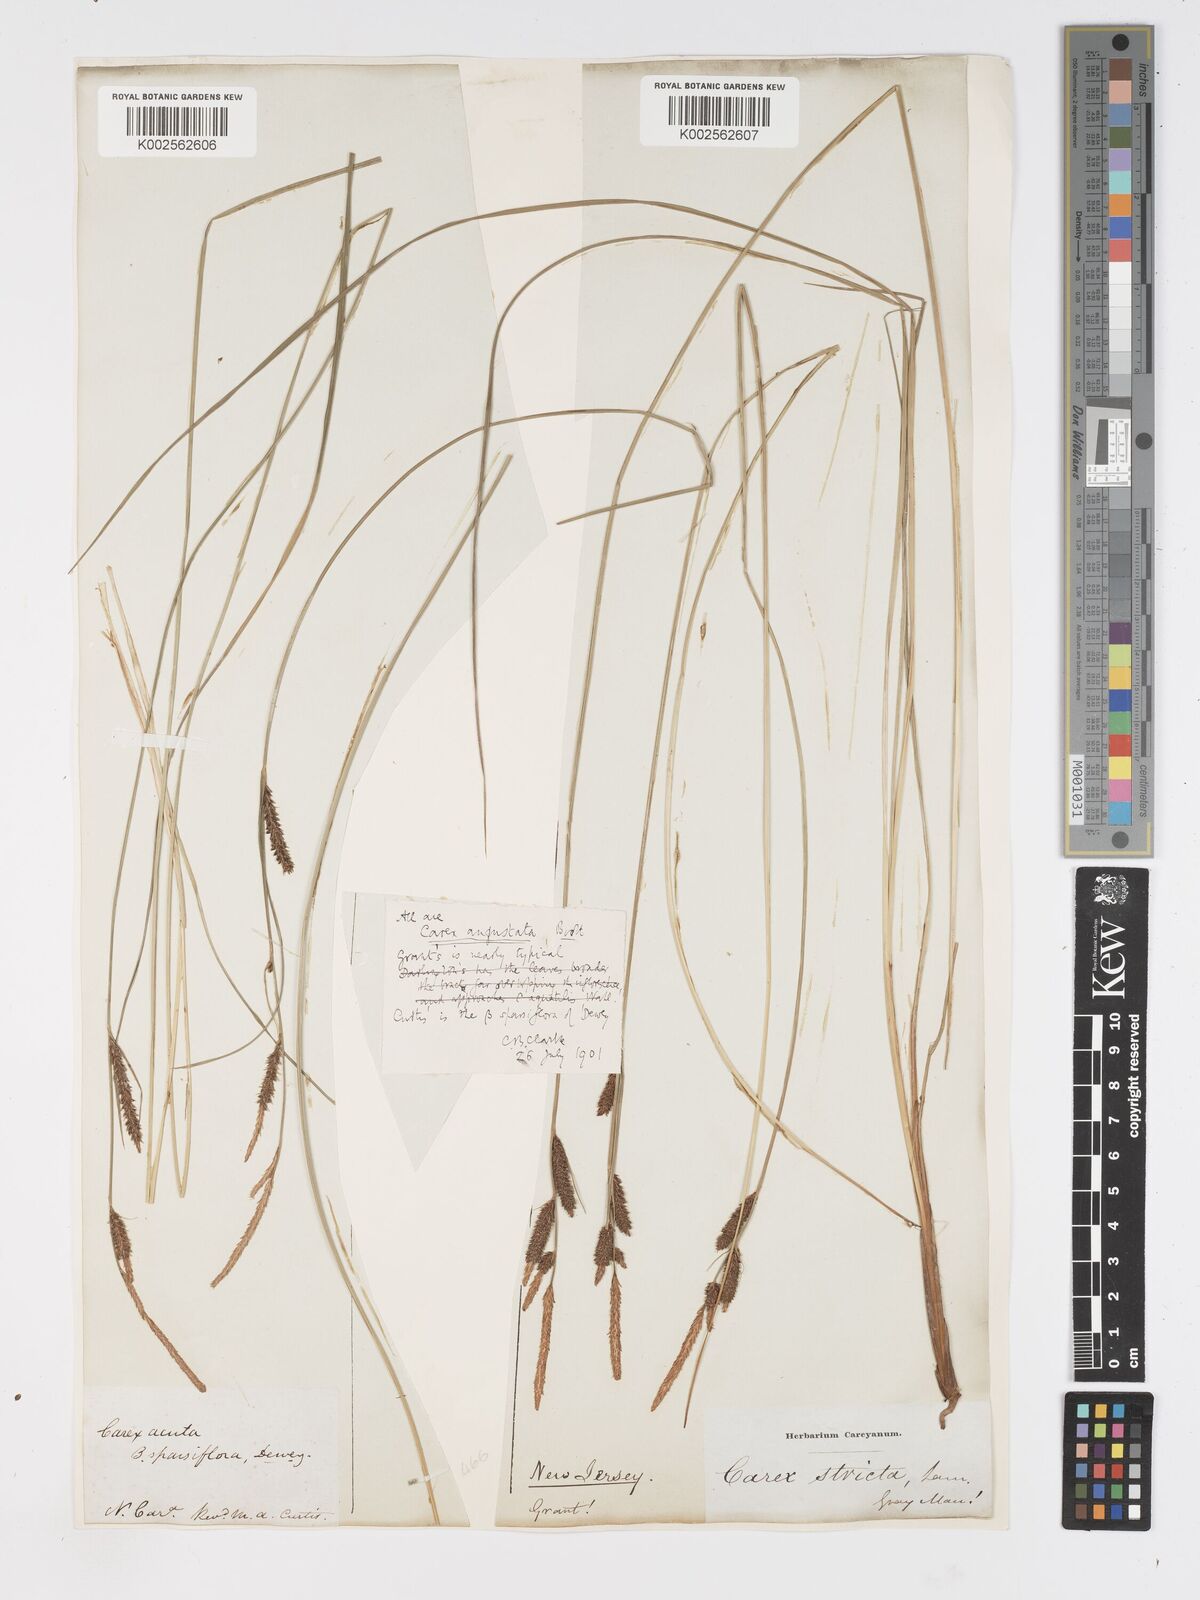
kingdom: Plantae
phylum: Tracheophyta
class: Liliopsida
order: Poales
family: Cyperaceae
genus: Carex
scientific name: Carex stricta
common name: Hummock sedge
